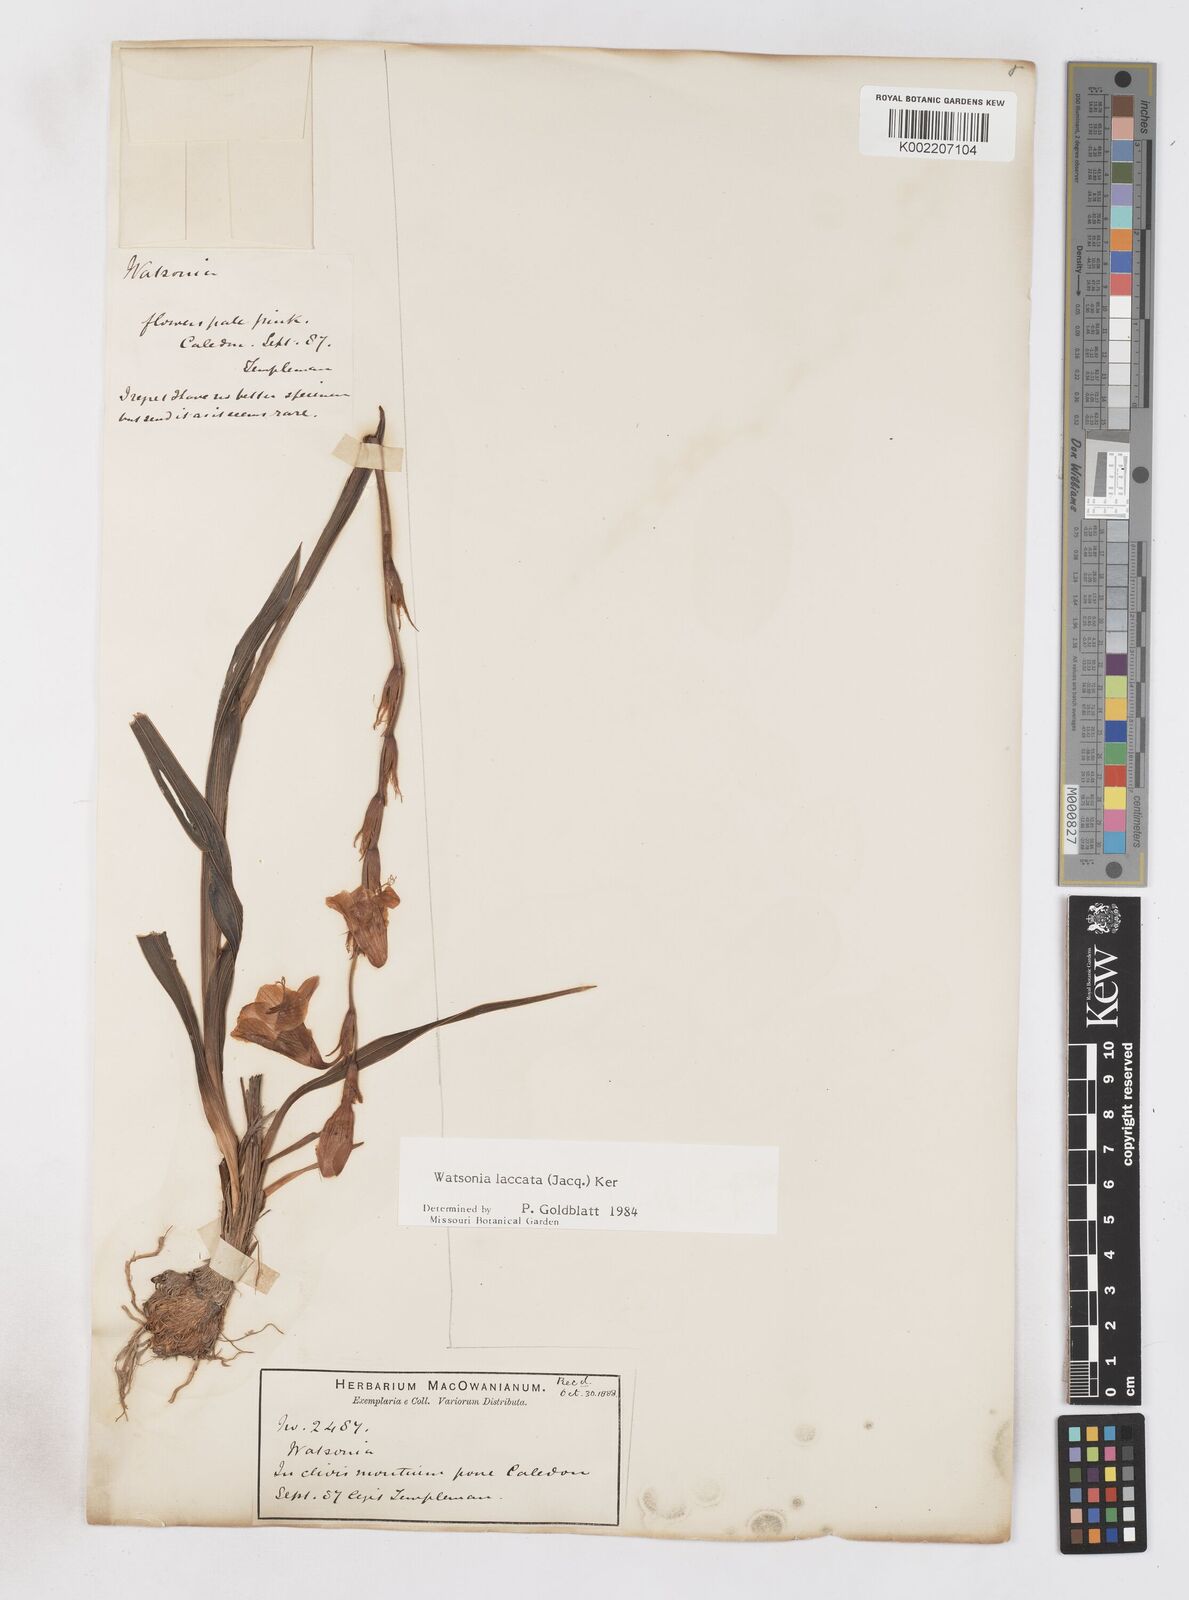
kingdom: Plantae
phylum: Tracheophyta
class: Liliopsida
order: Asparagales
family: Iridaceae
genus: Watsonia
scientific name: Watsonia laccata
